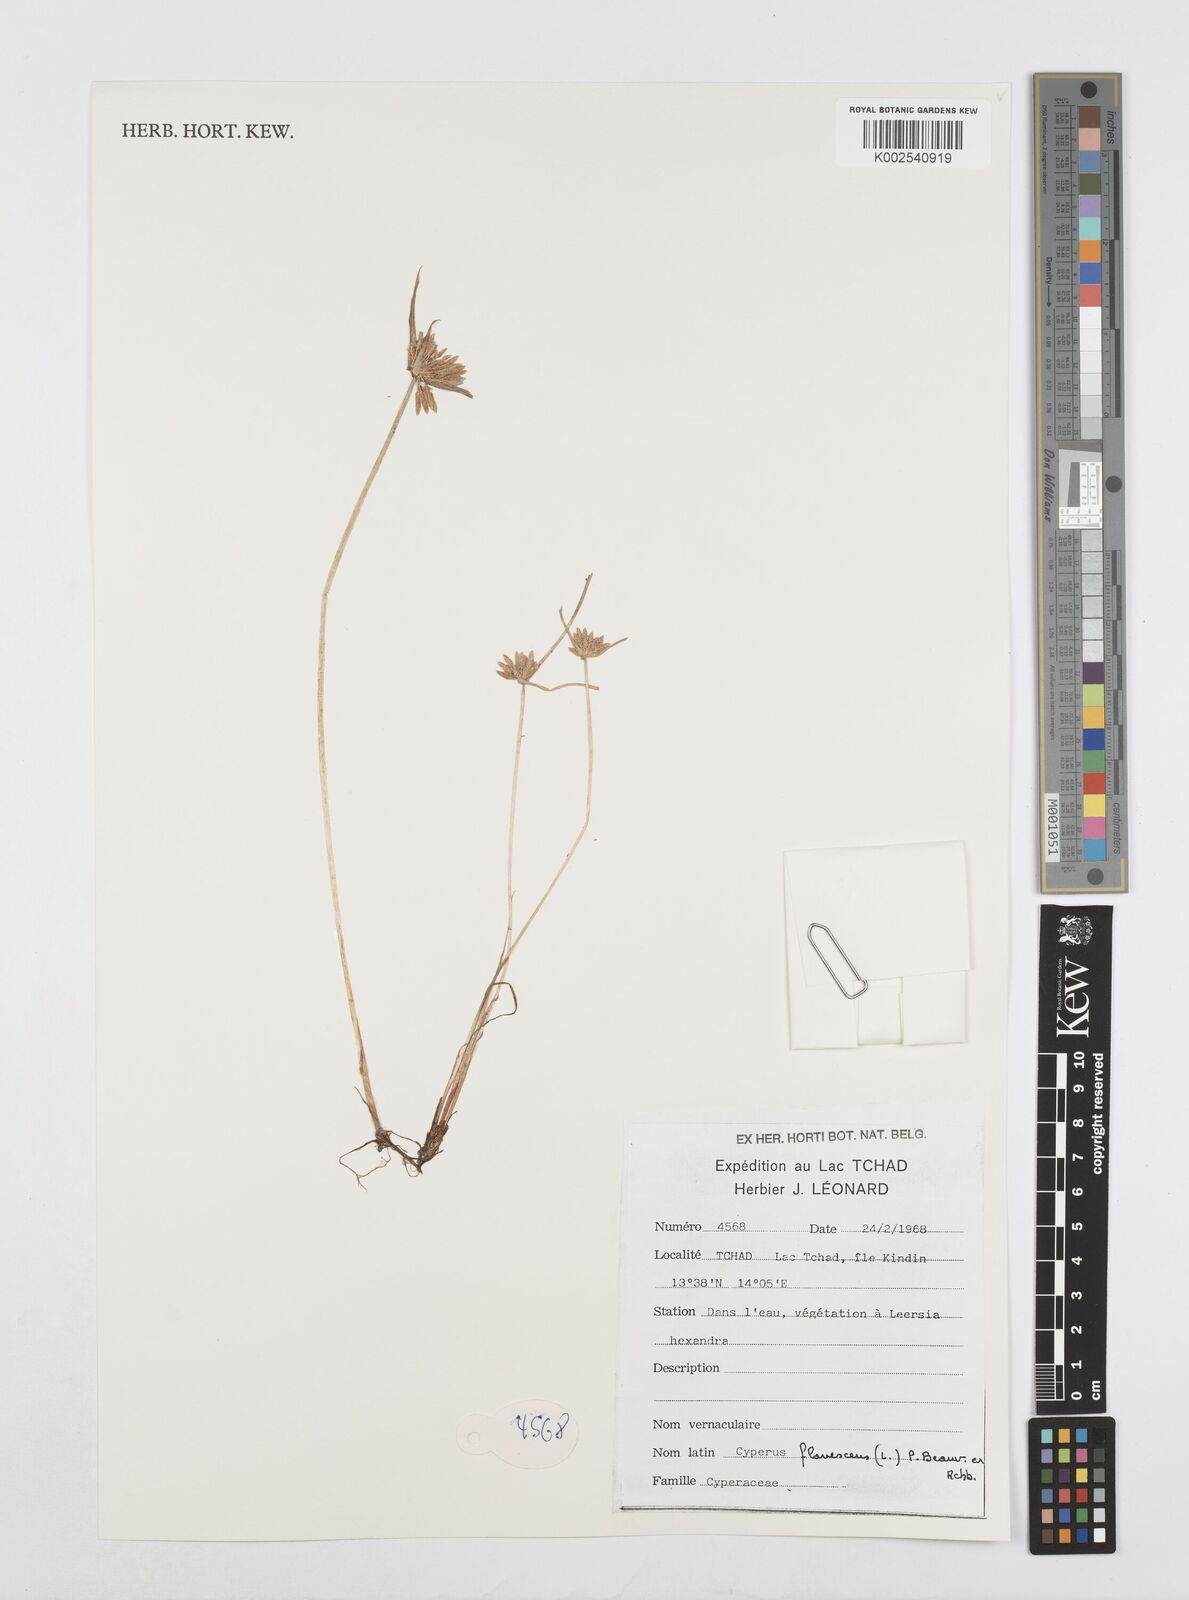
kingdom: Plantae
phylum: Tracheophyta
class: Liliopsida
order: Poales
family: Cyperaceae
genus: Cyperus
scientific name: Cyperus flavescens
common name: Yellow galingale
